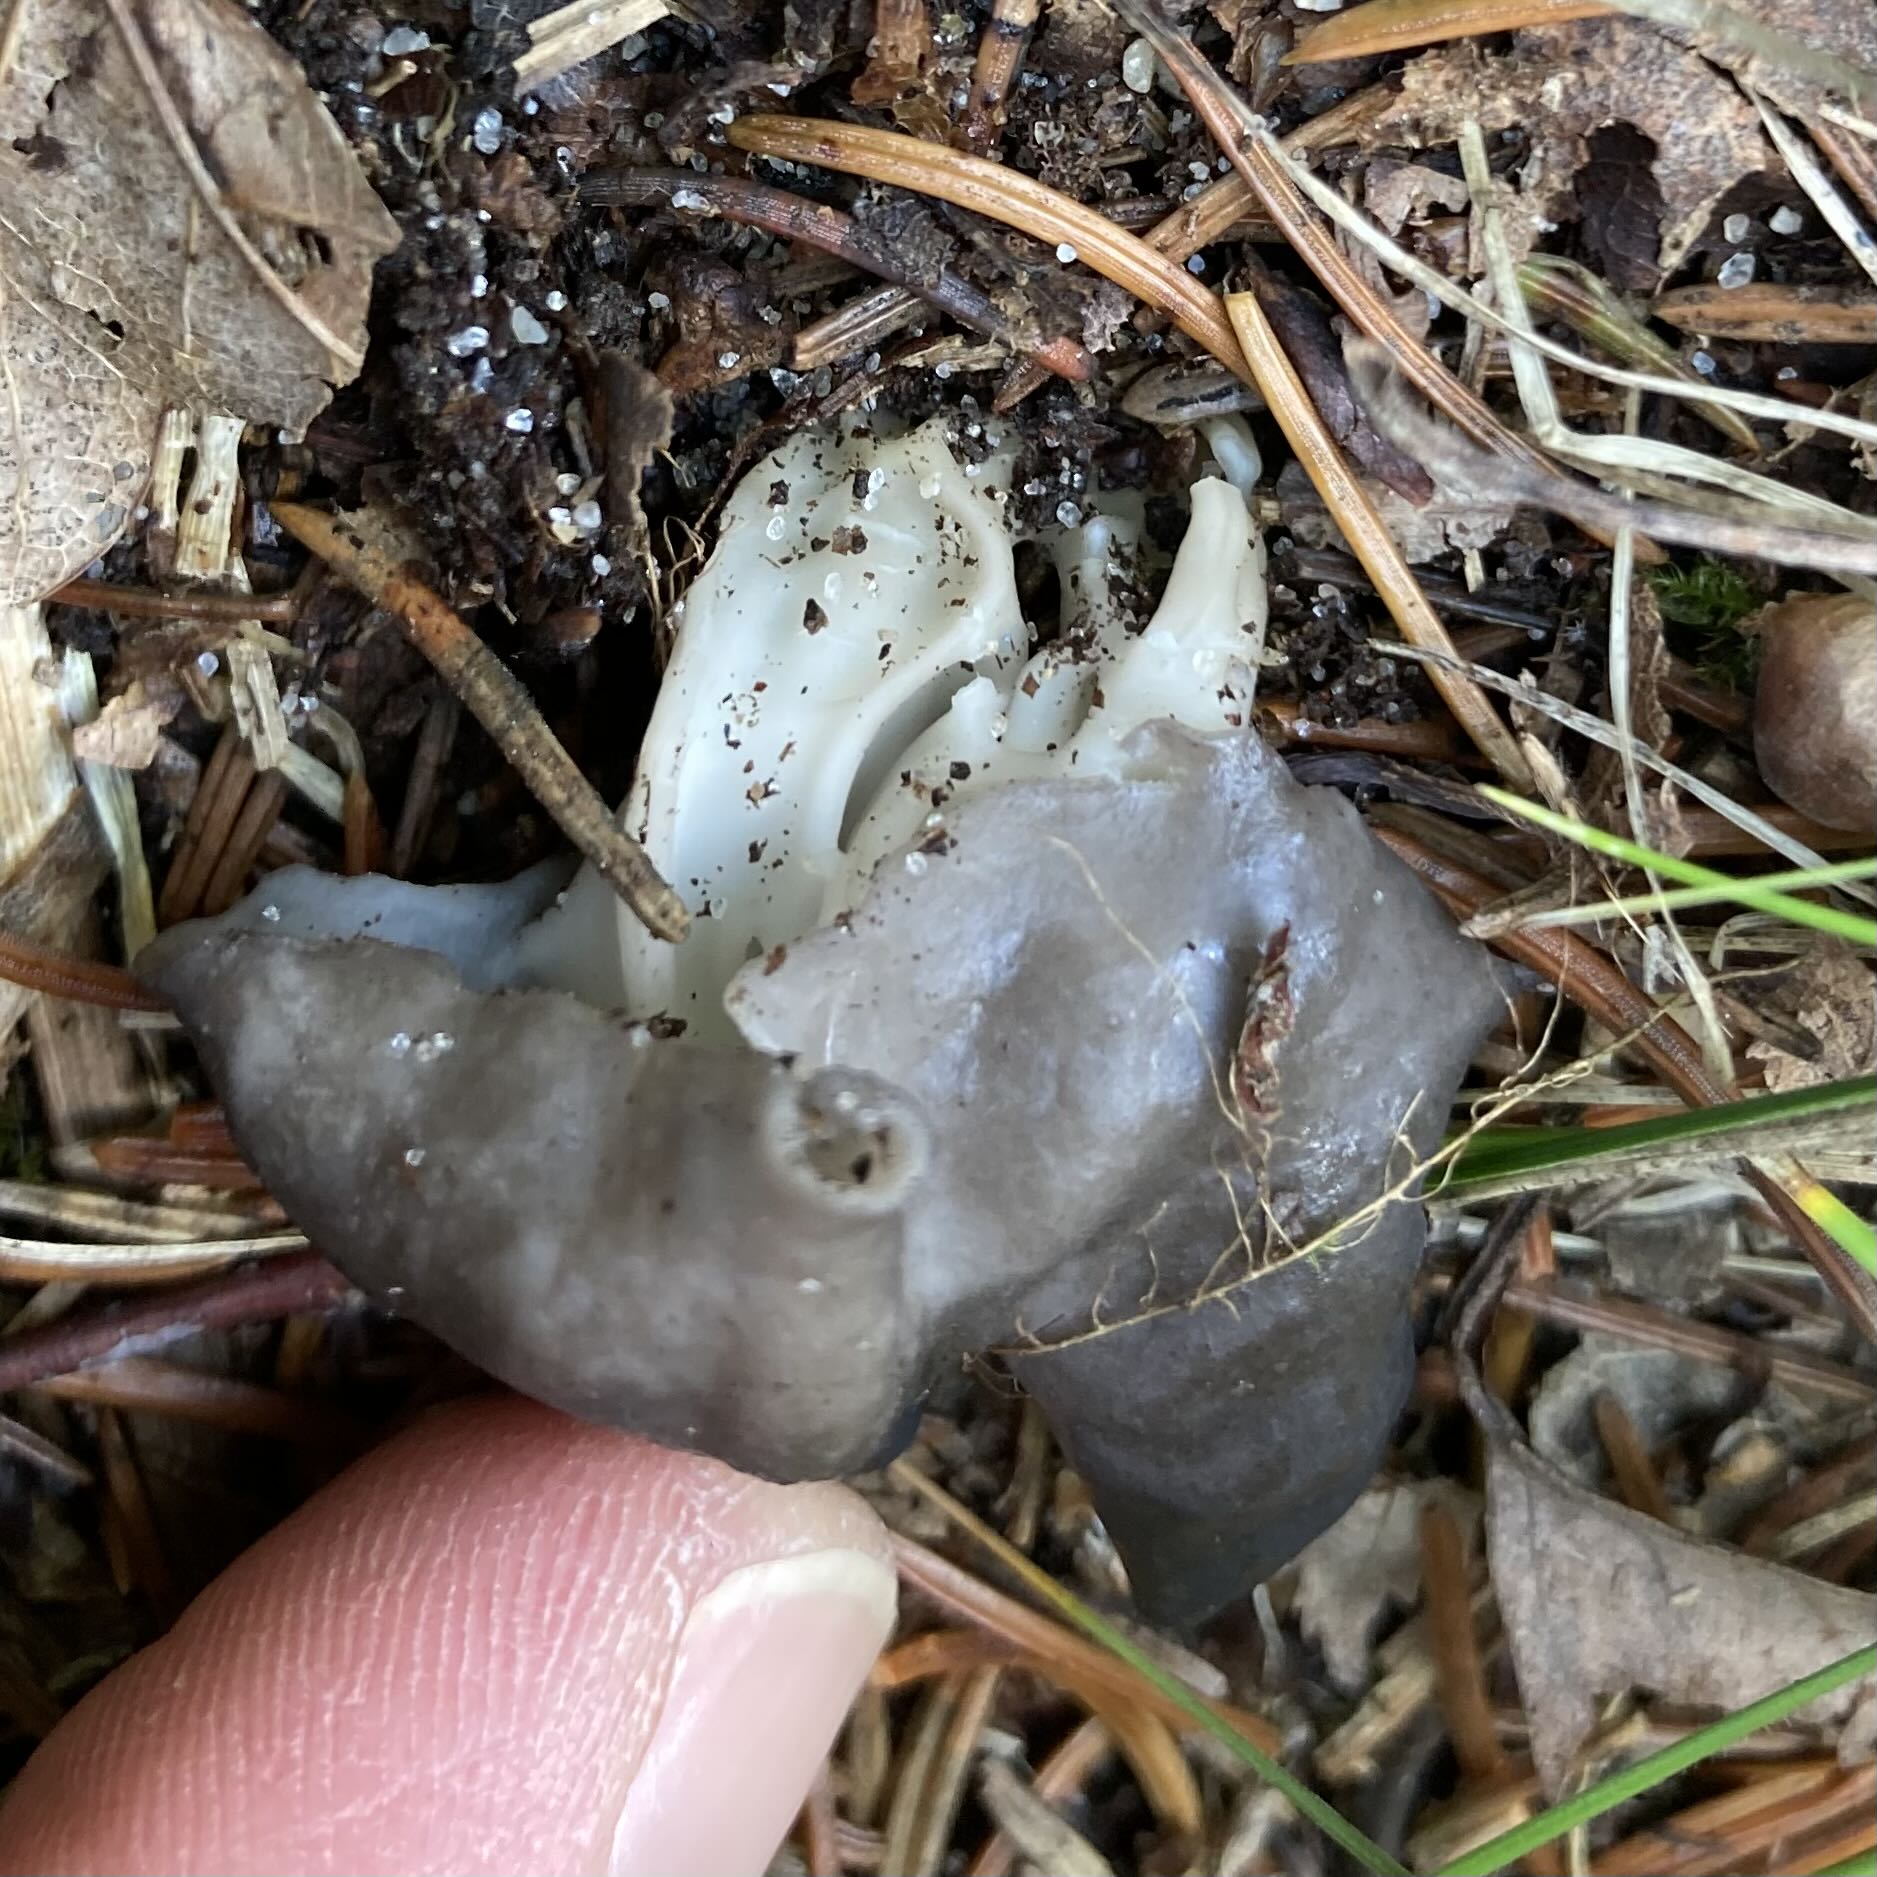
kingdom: Fungi
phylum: Ascomycota
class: Pezizomycetes
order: Pezizales
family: Helvellaceae
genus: Helvella
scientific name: Helvella lacunosa
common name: grubet foldhat
